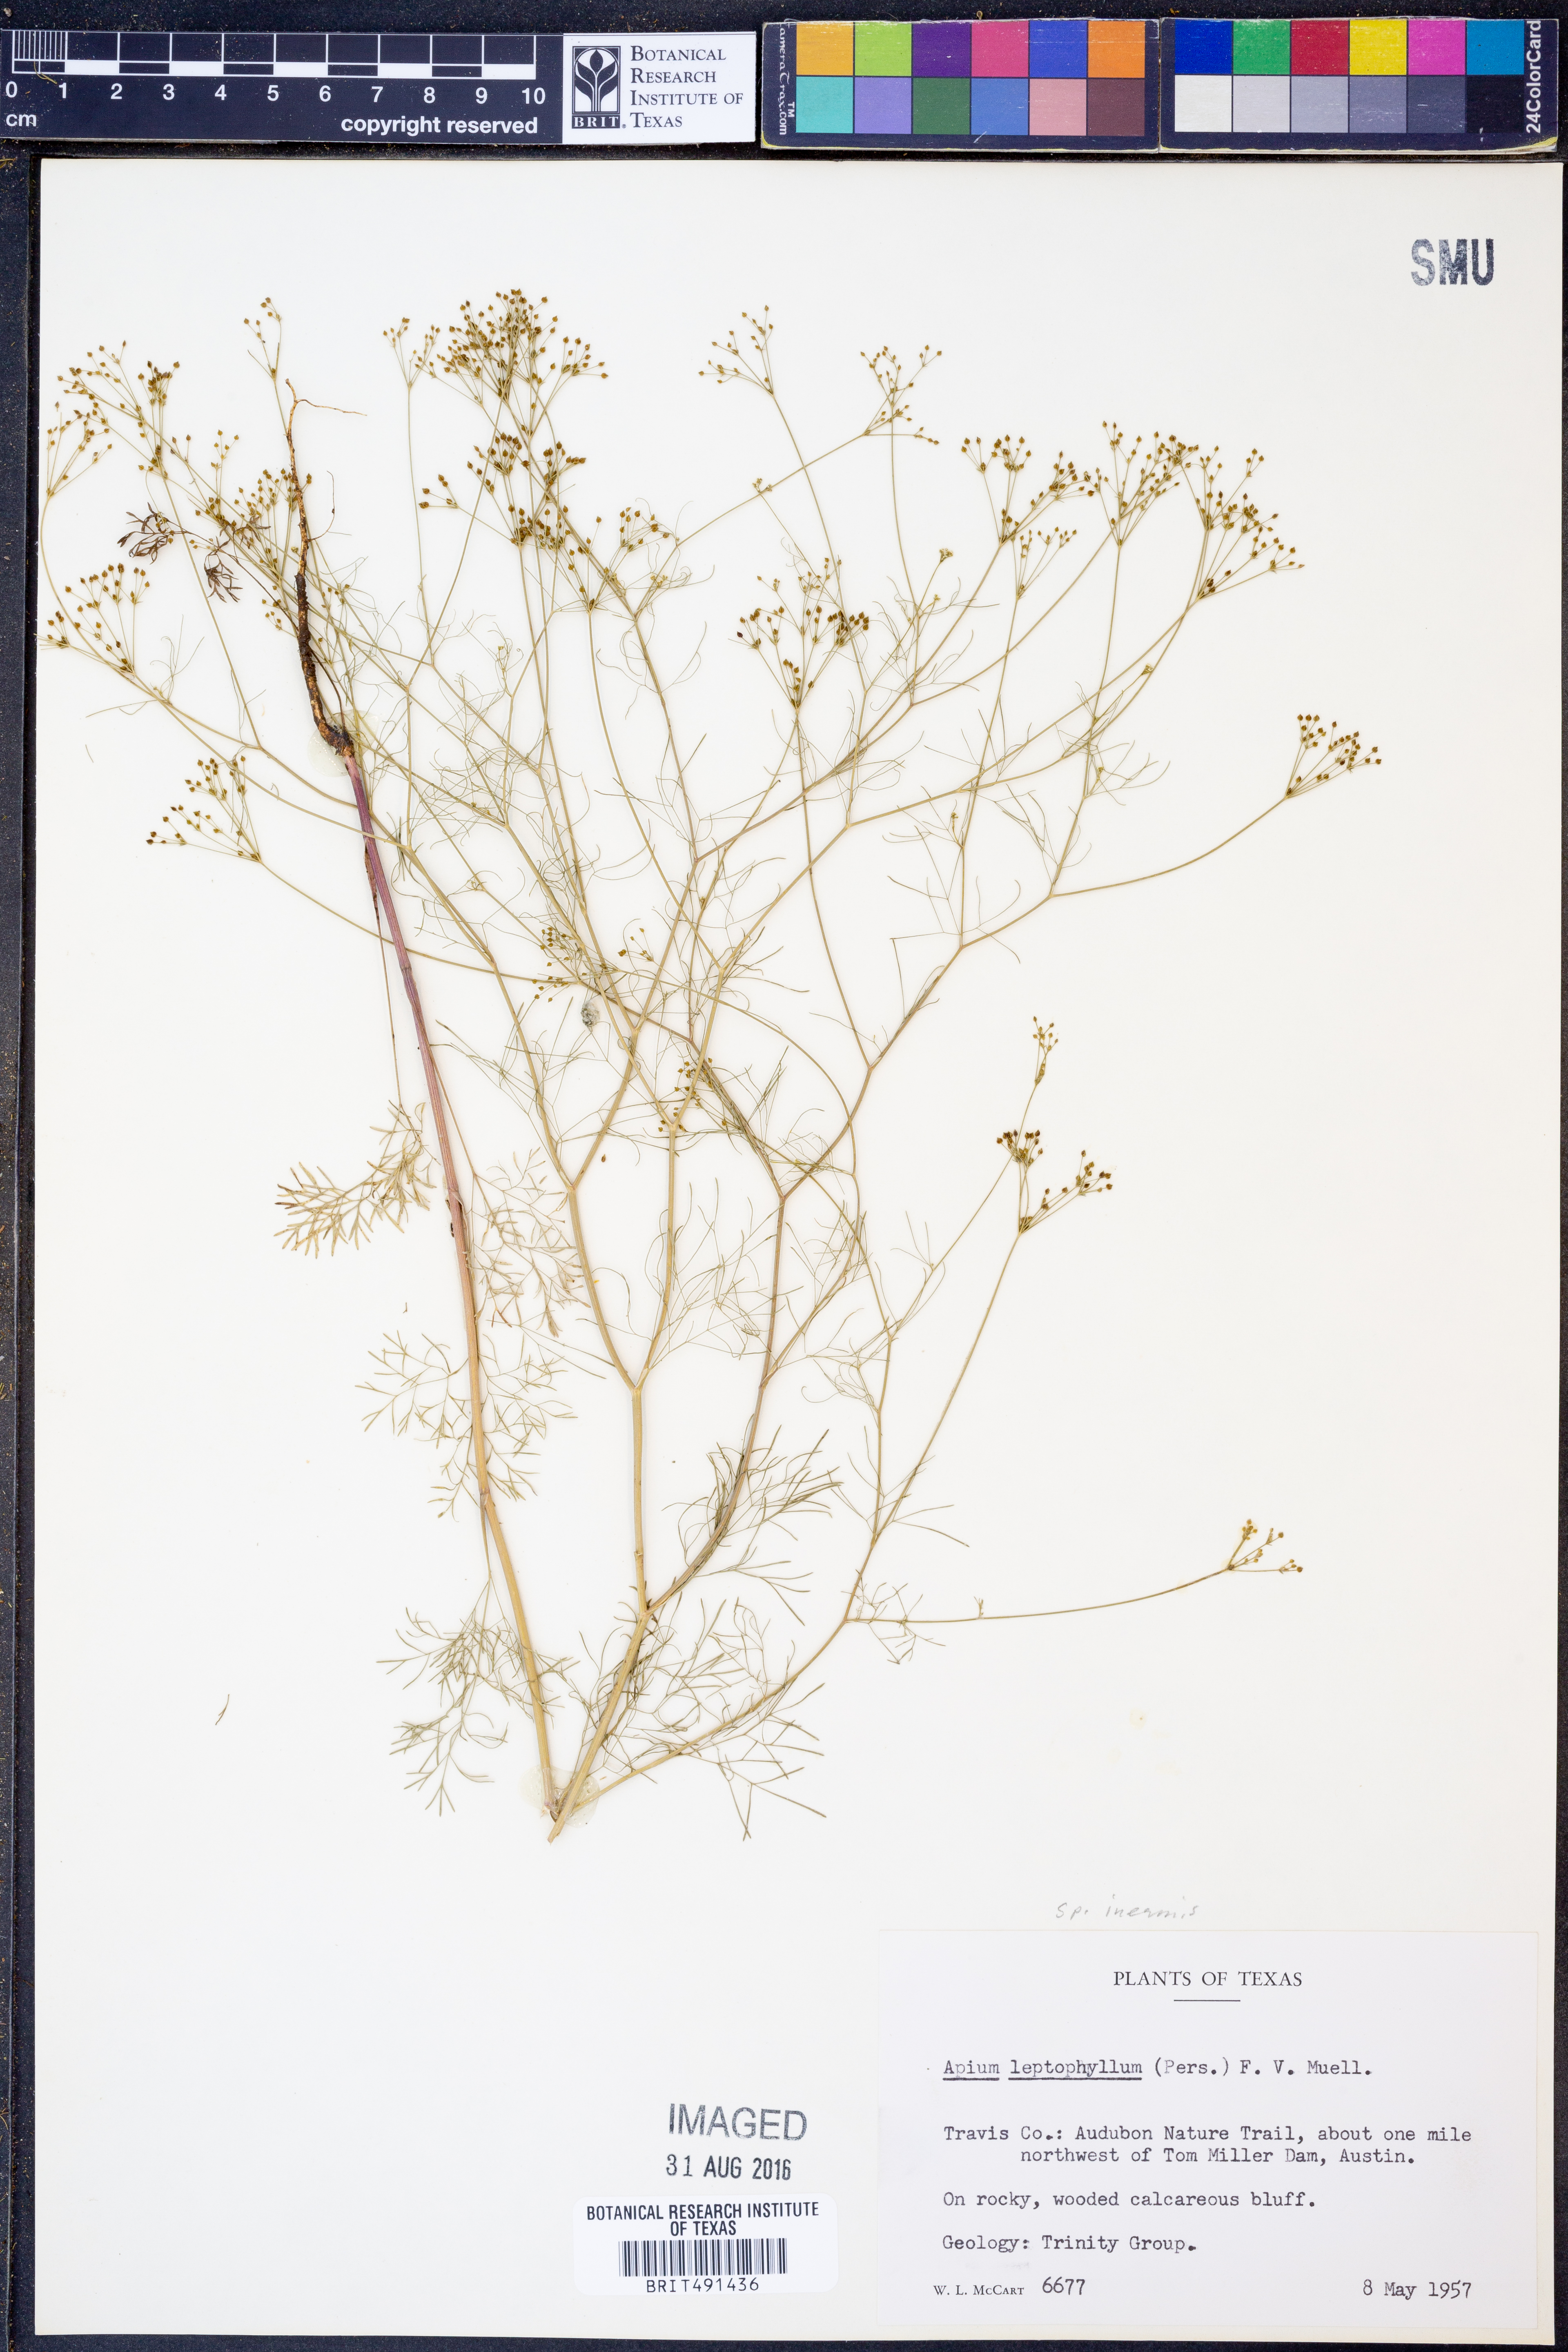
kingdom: Plantae
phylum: Tracheophyta
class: Magnoliopsida
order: Apiales
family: Apiaceae
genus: Spermolepis
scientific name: Spermolepis inermis
